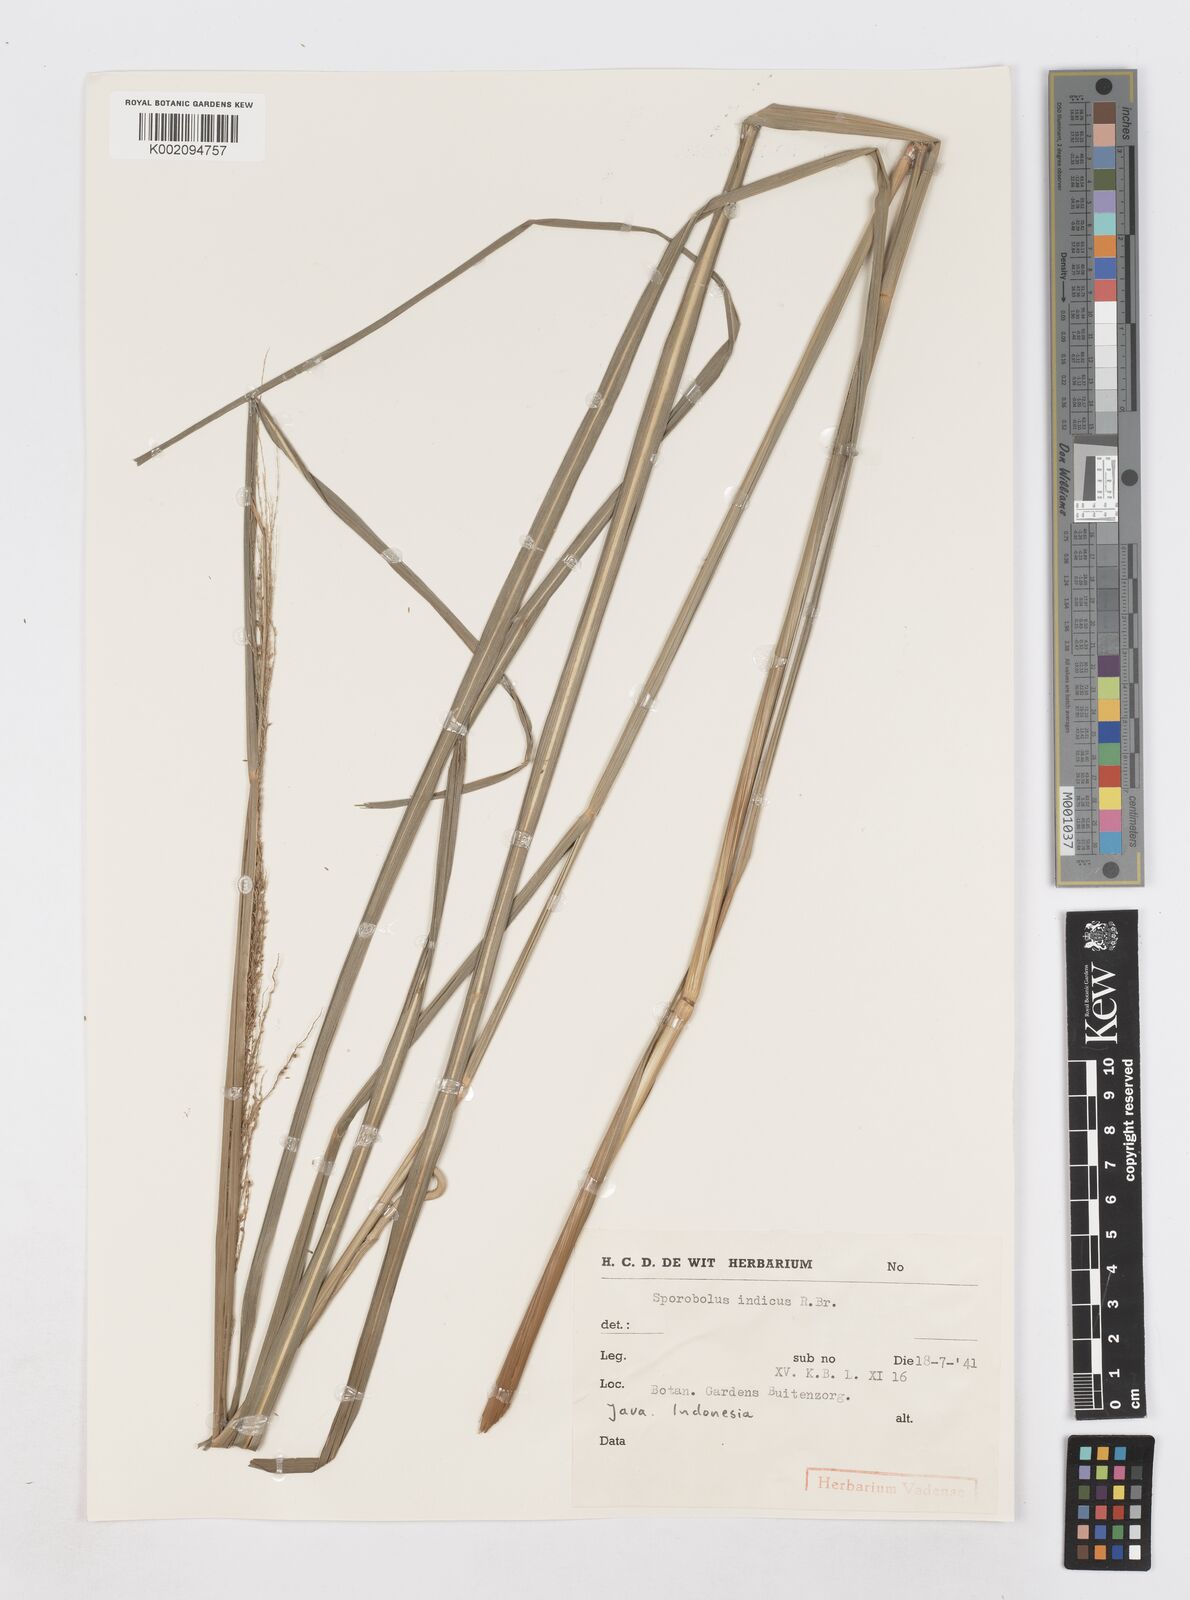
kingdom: Plantae
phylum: Tracheophyta
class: Liliopsida
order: Poales
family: Poaceae
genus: Sporobolus
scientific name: Sporobolus fertilis
